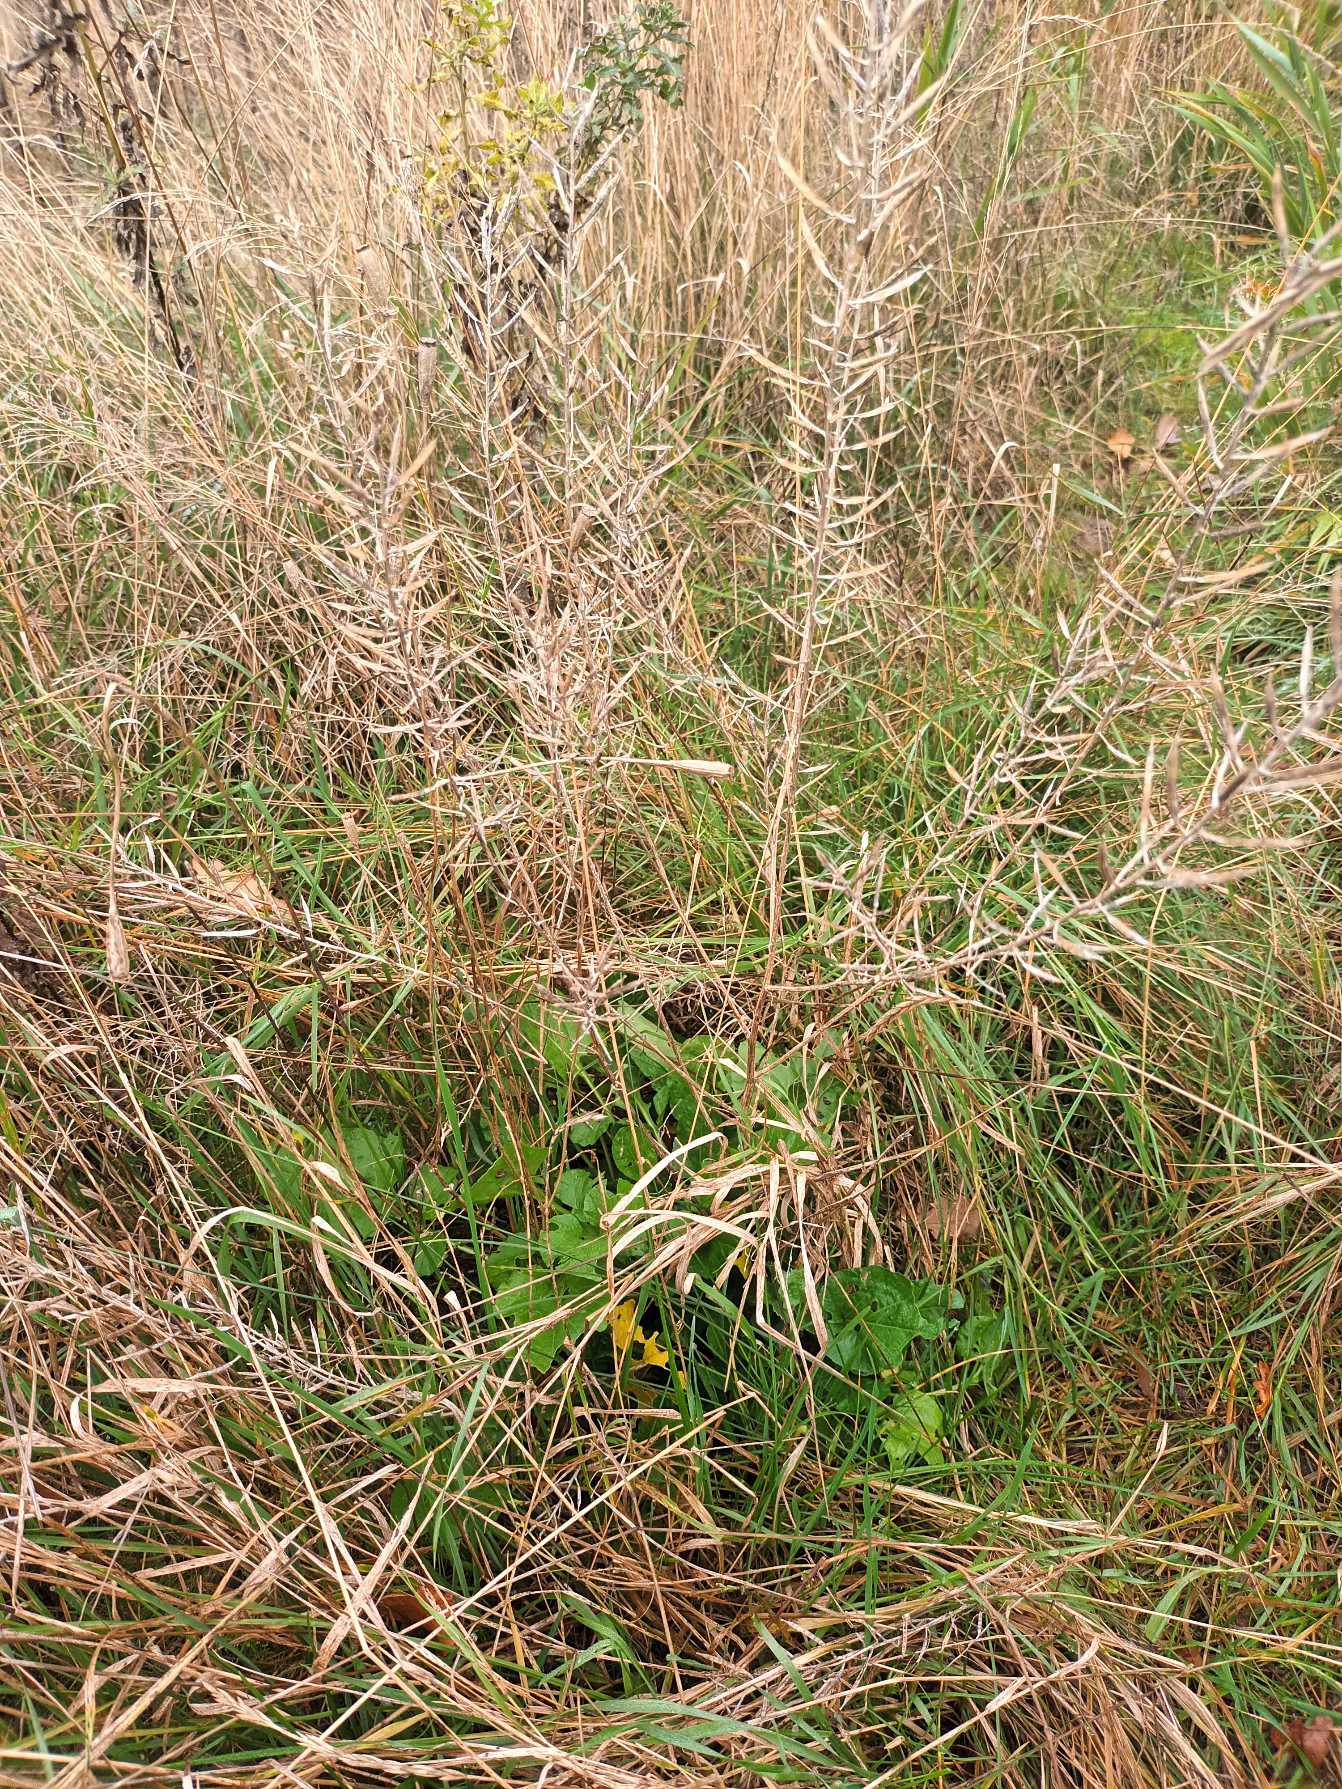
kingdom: Plantae
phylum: Tracheophyta
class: Magnoliopsida
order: Brassicales
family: Brassicaceae
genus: Barbarea
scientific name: Barbarea vulgaris
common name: Udspærret vinterkarse
